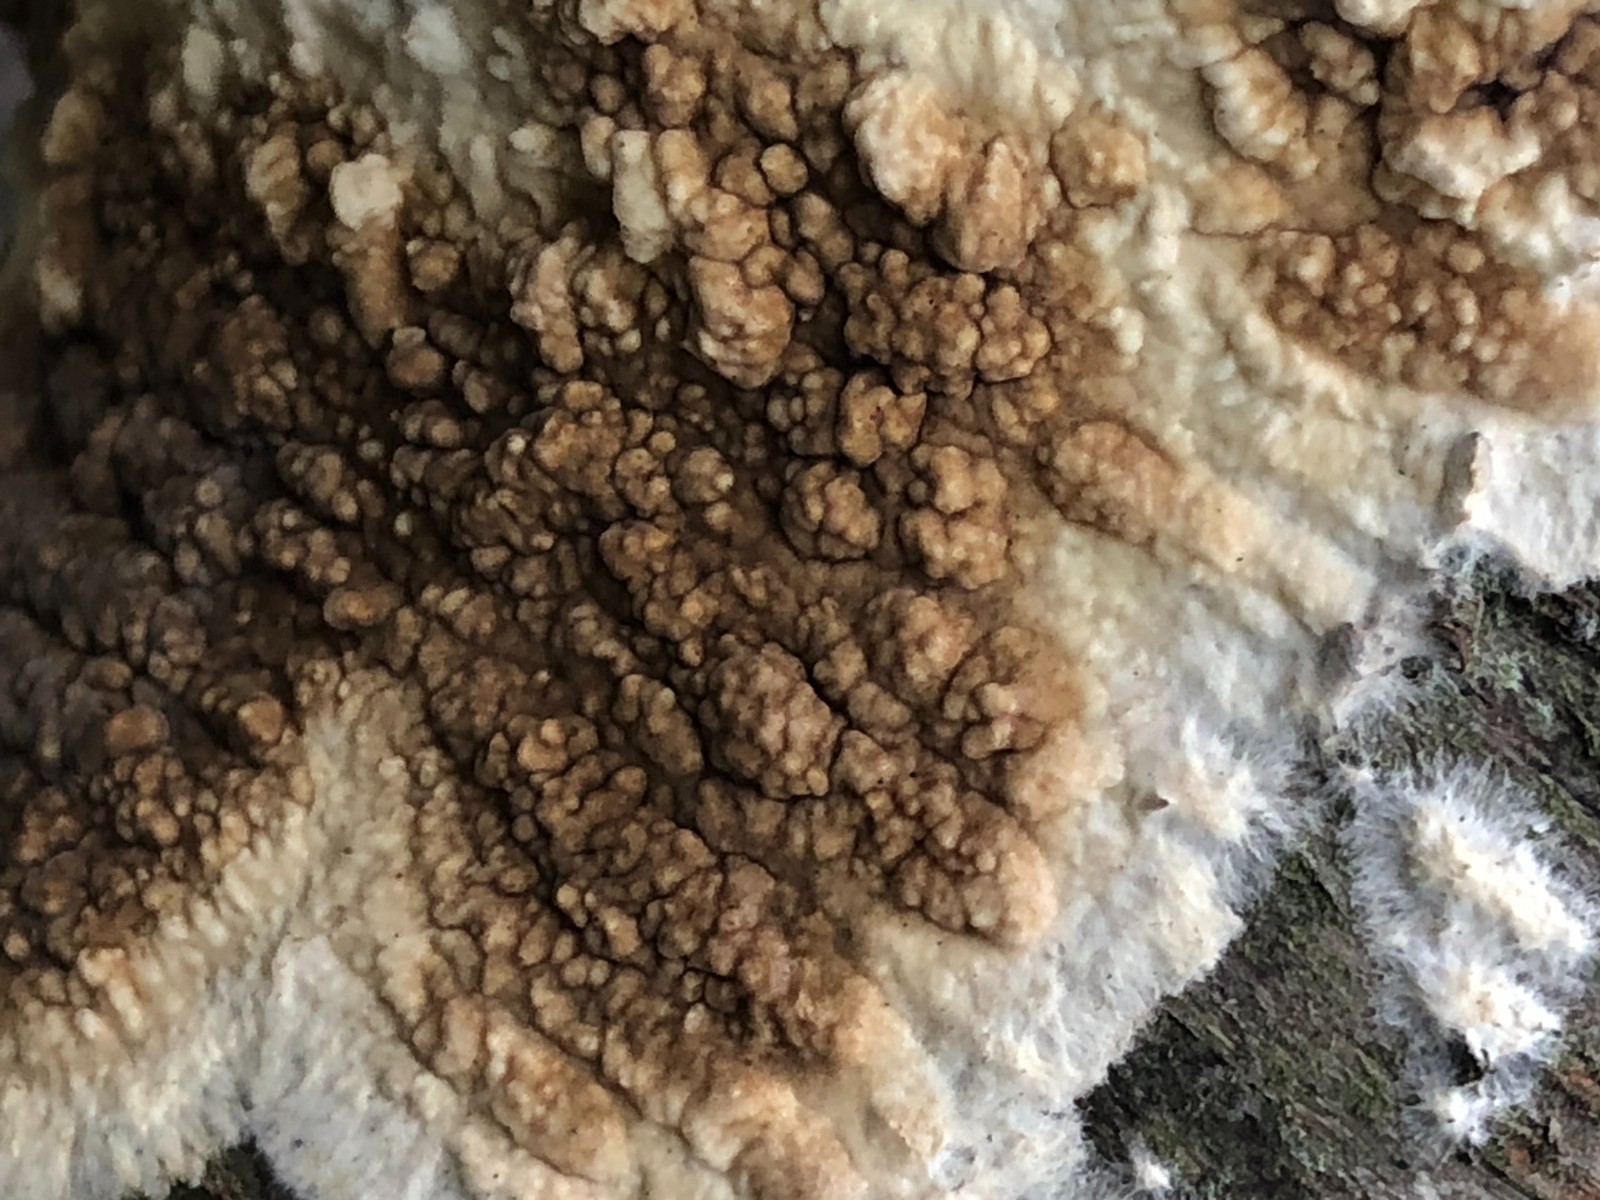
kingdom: Fungi
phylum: Basidiomycota
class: Agaricomycetes
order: Boletales
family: Coniophoraceae
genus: Coniophora
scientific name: Coniophora puteana
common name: gul tømmersvamp
